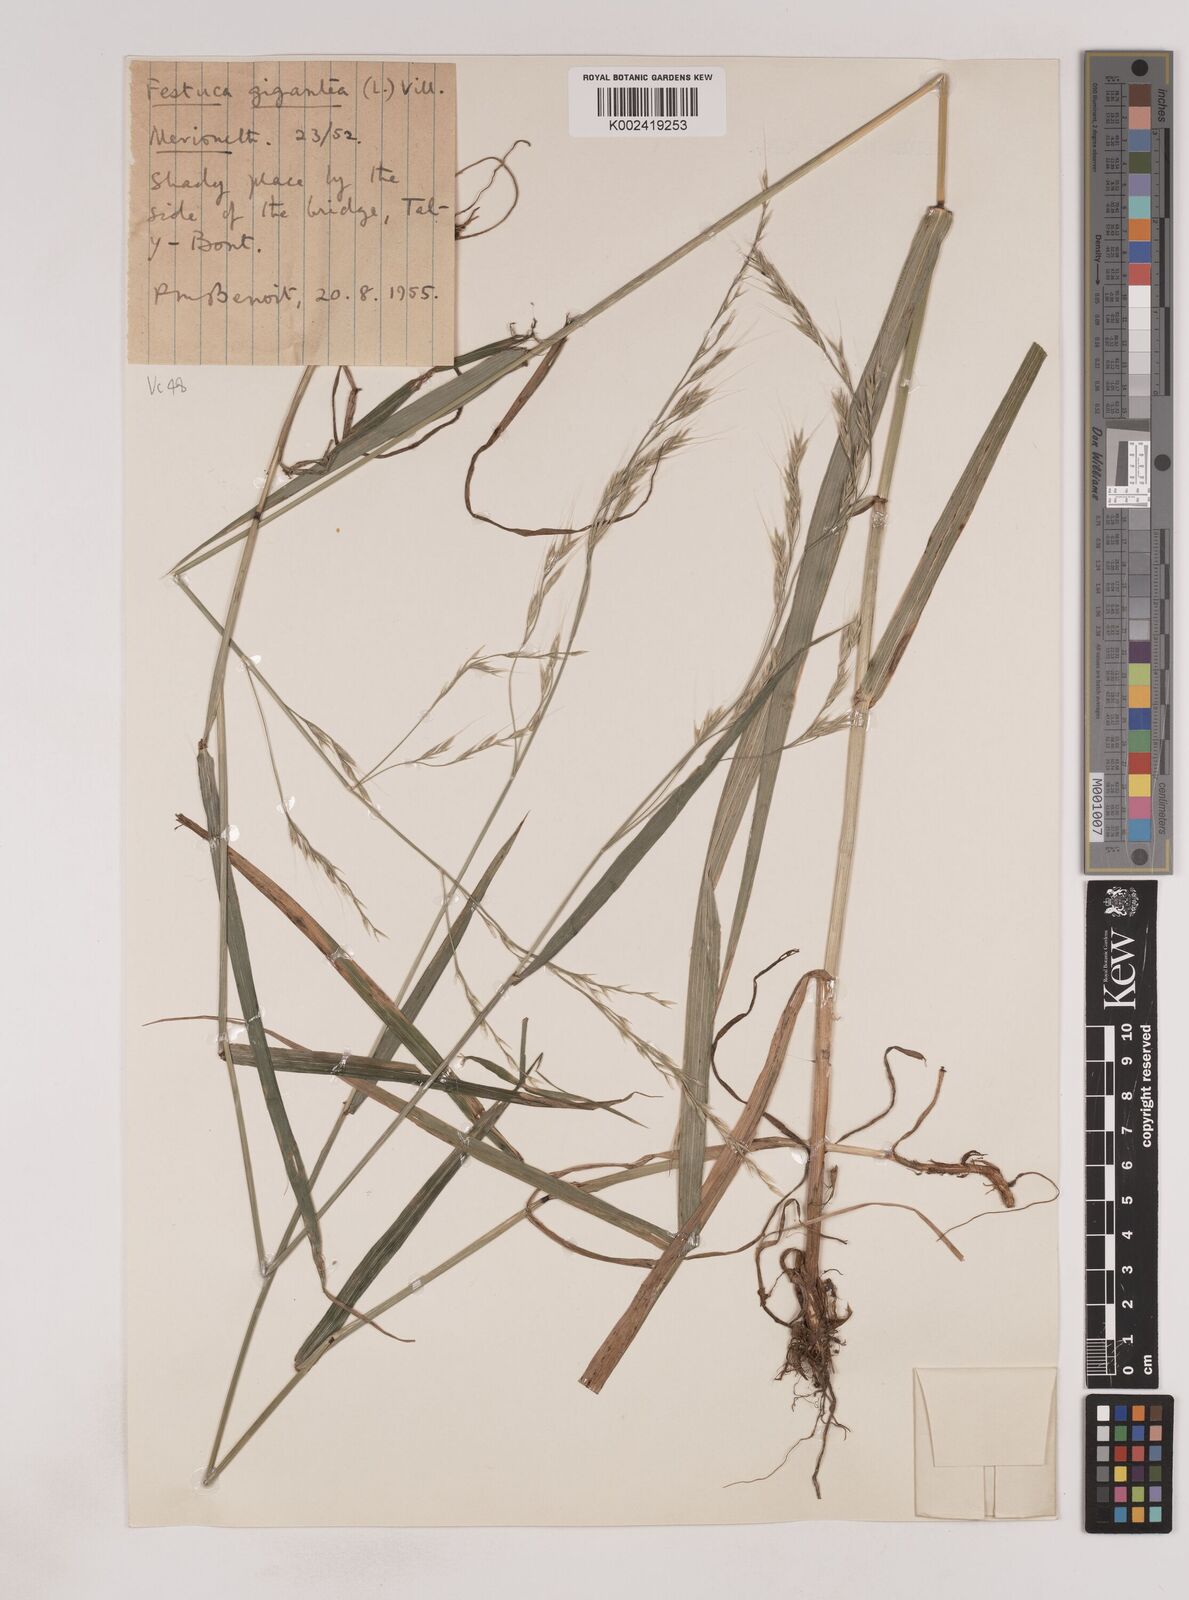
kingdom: Plantae
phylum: Tracheophyta
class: Liliopsida
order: Poales
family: Poaceae
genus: Lolium
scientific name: Lolium giganteum
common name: Giant fescue
